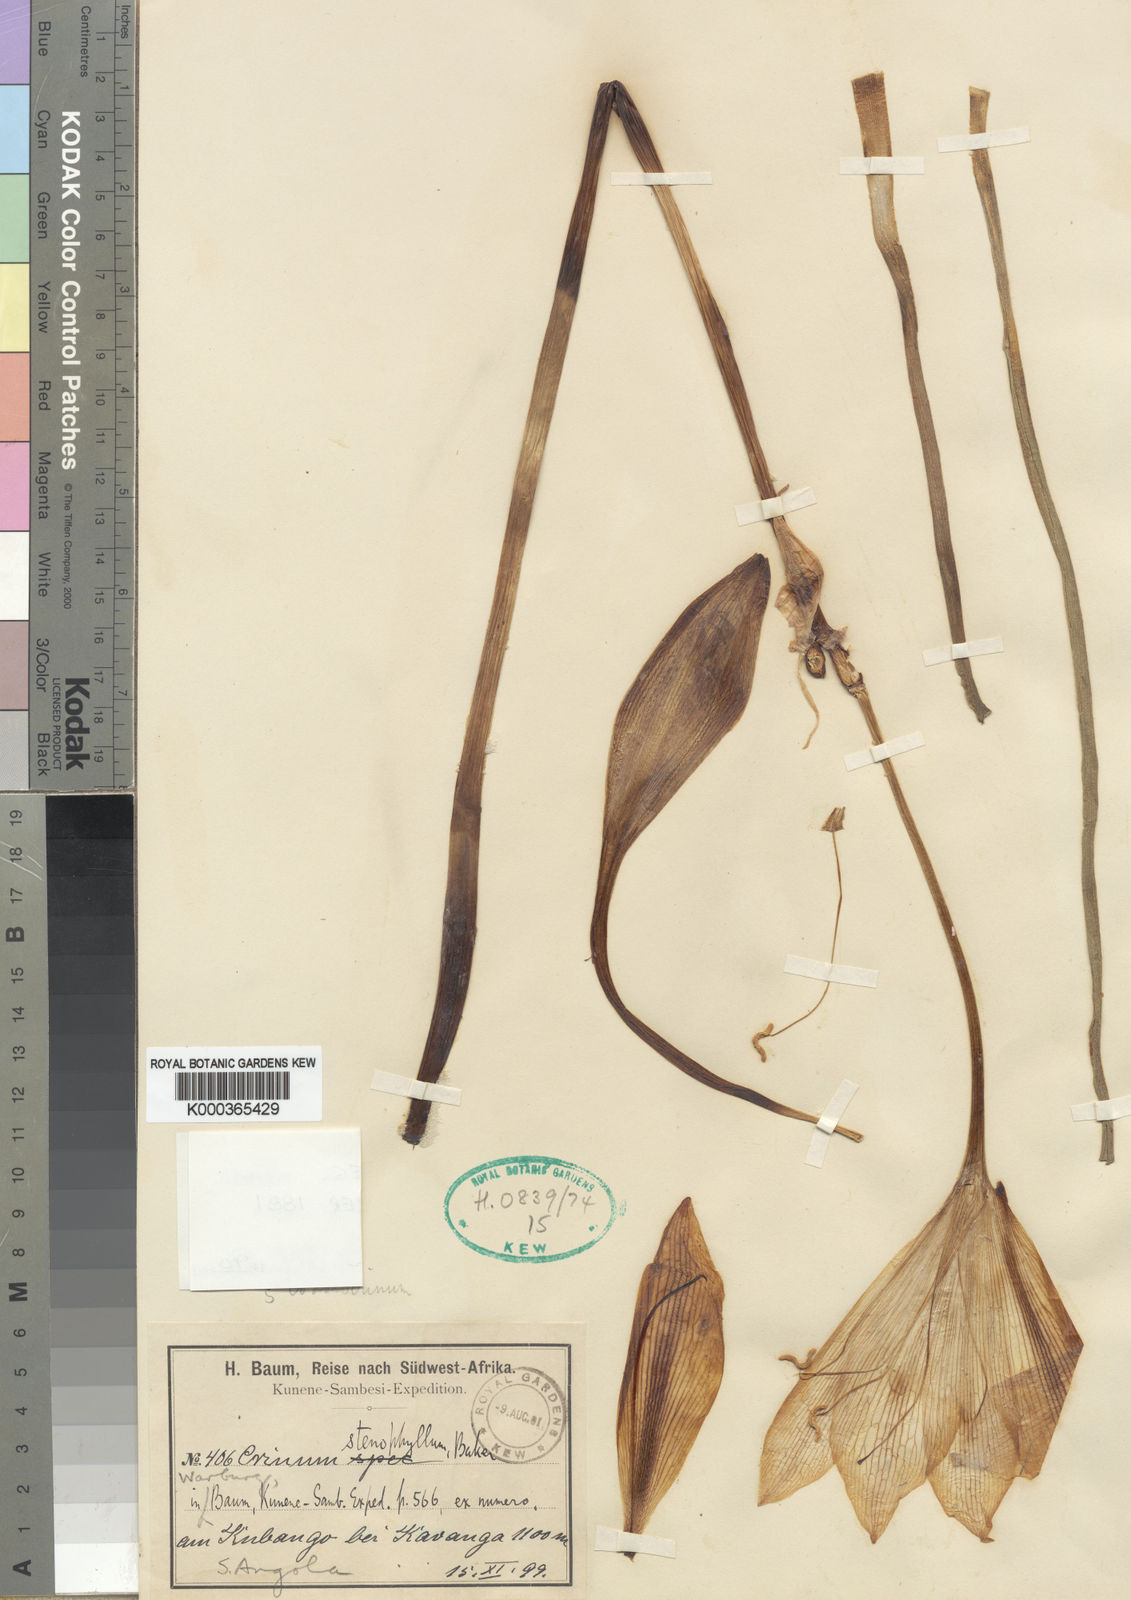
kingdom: Plantae
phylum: Tracheophyta
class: Liliopsida
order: Asparagales
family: Amaryllidaceae
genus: Crinum
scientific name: Crinum stenophyllum
